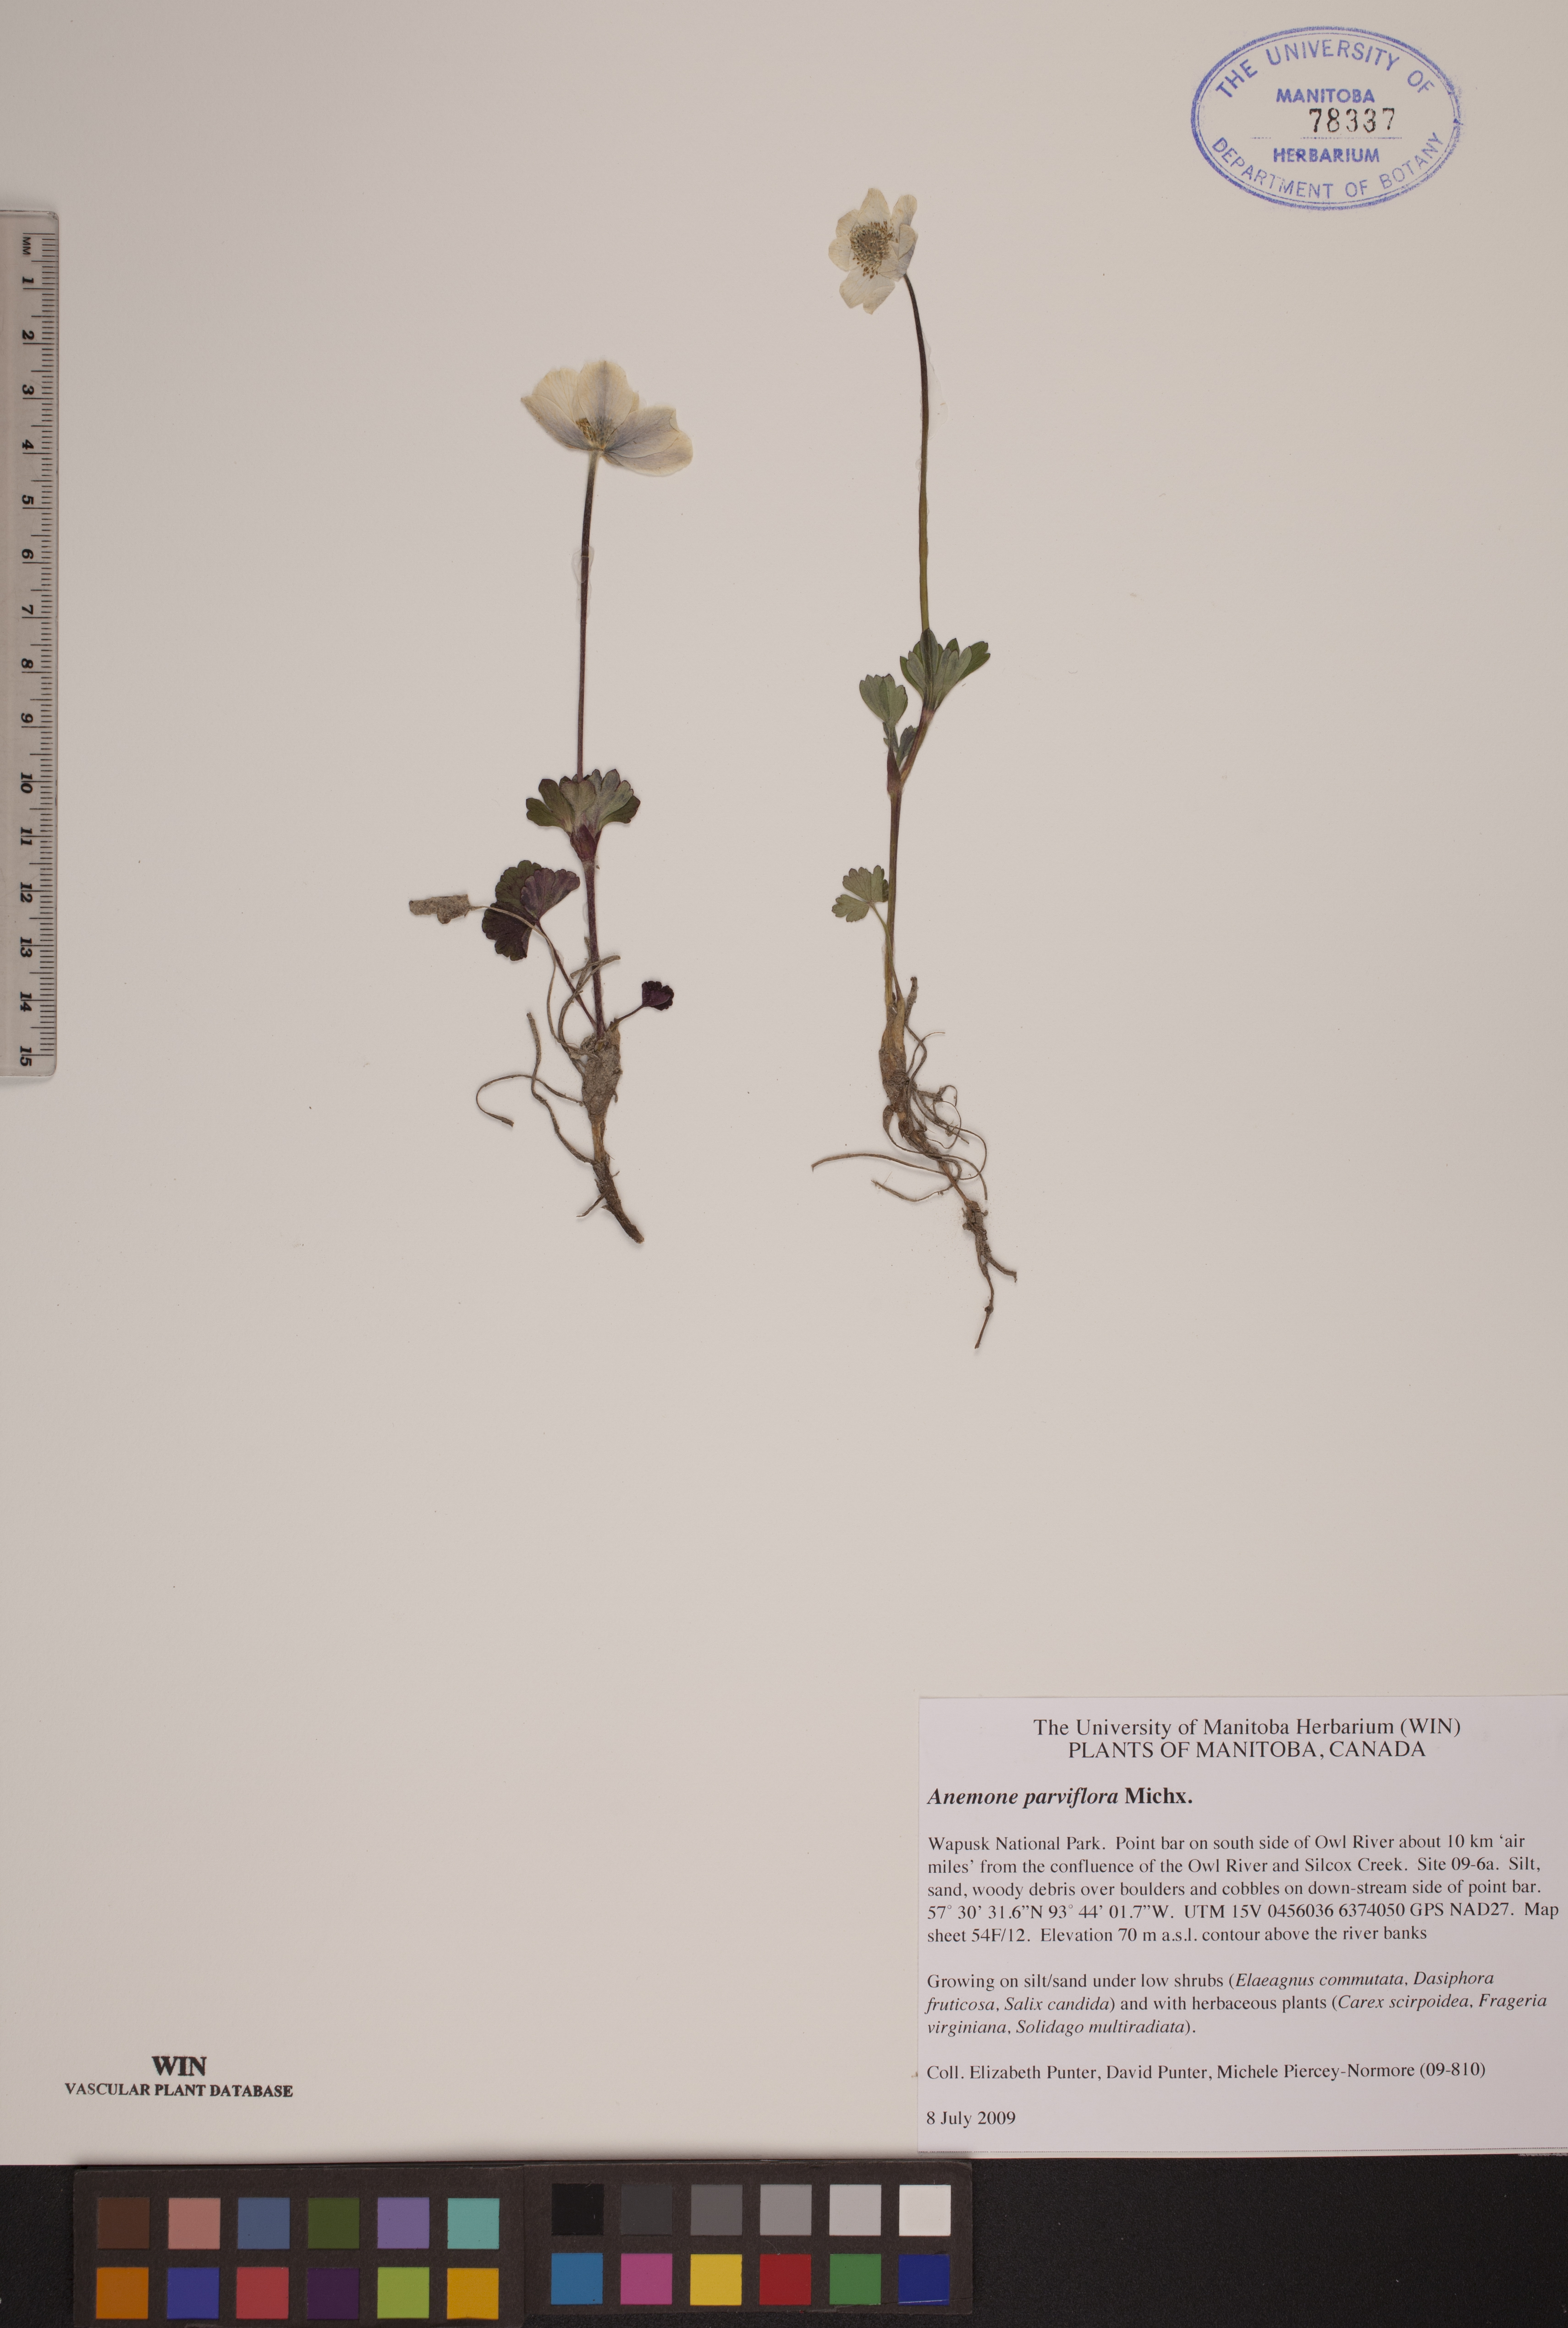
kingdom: Plantae
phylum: Tracheophyta
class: Magnoliopsida
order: Ranunculales
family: Ranunculaceae
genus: Anemone
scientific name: Anemone parviflora
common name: Northern anemone
